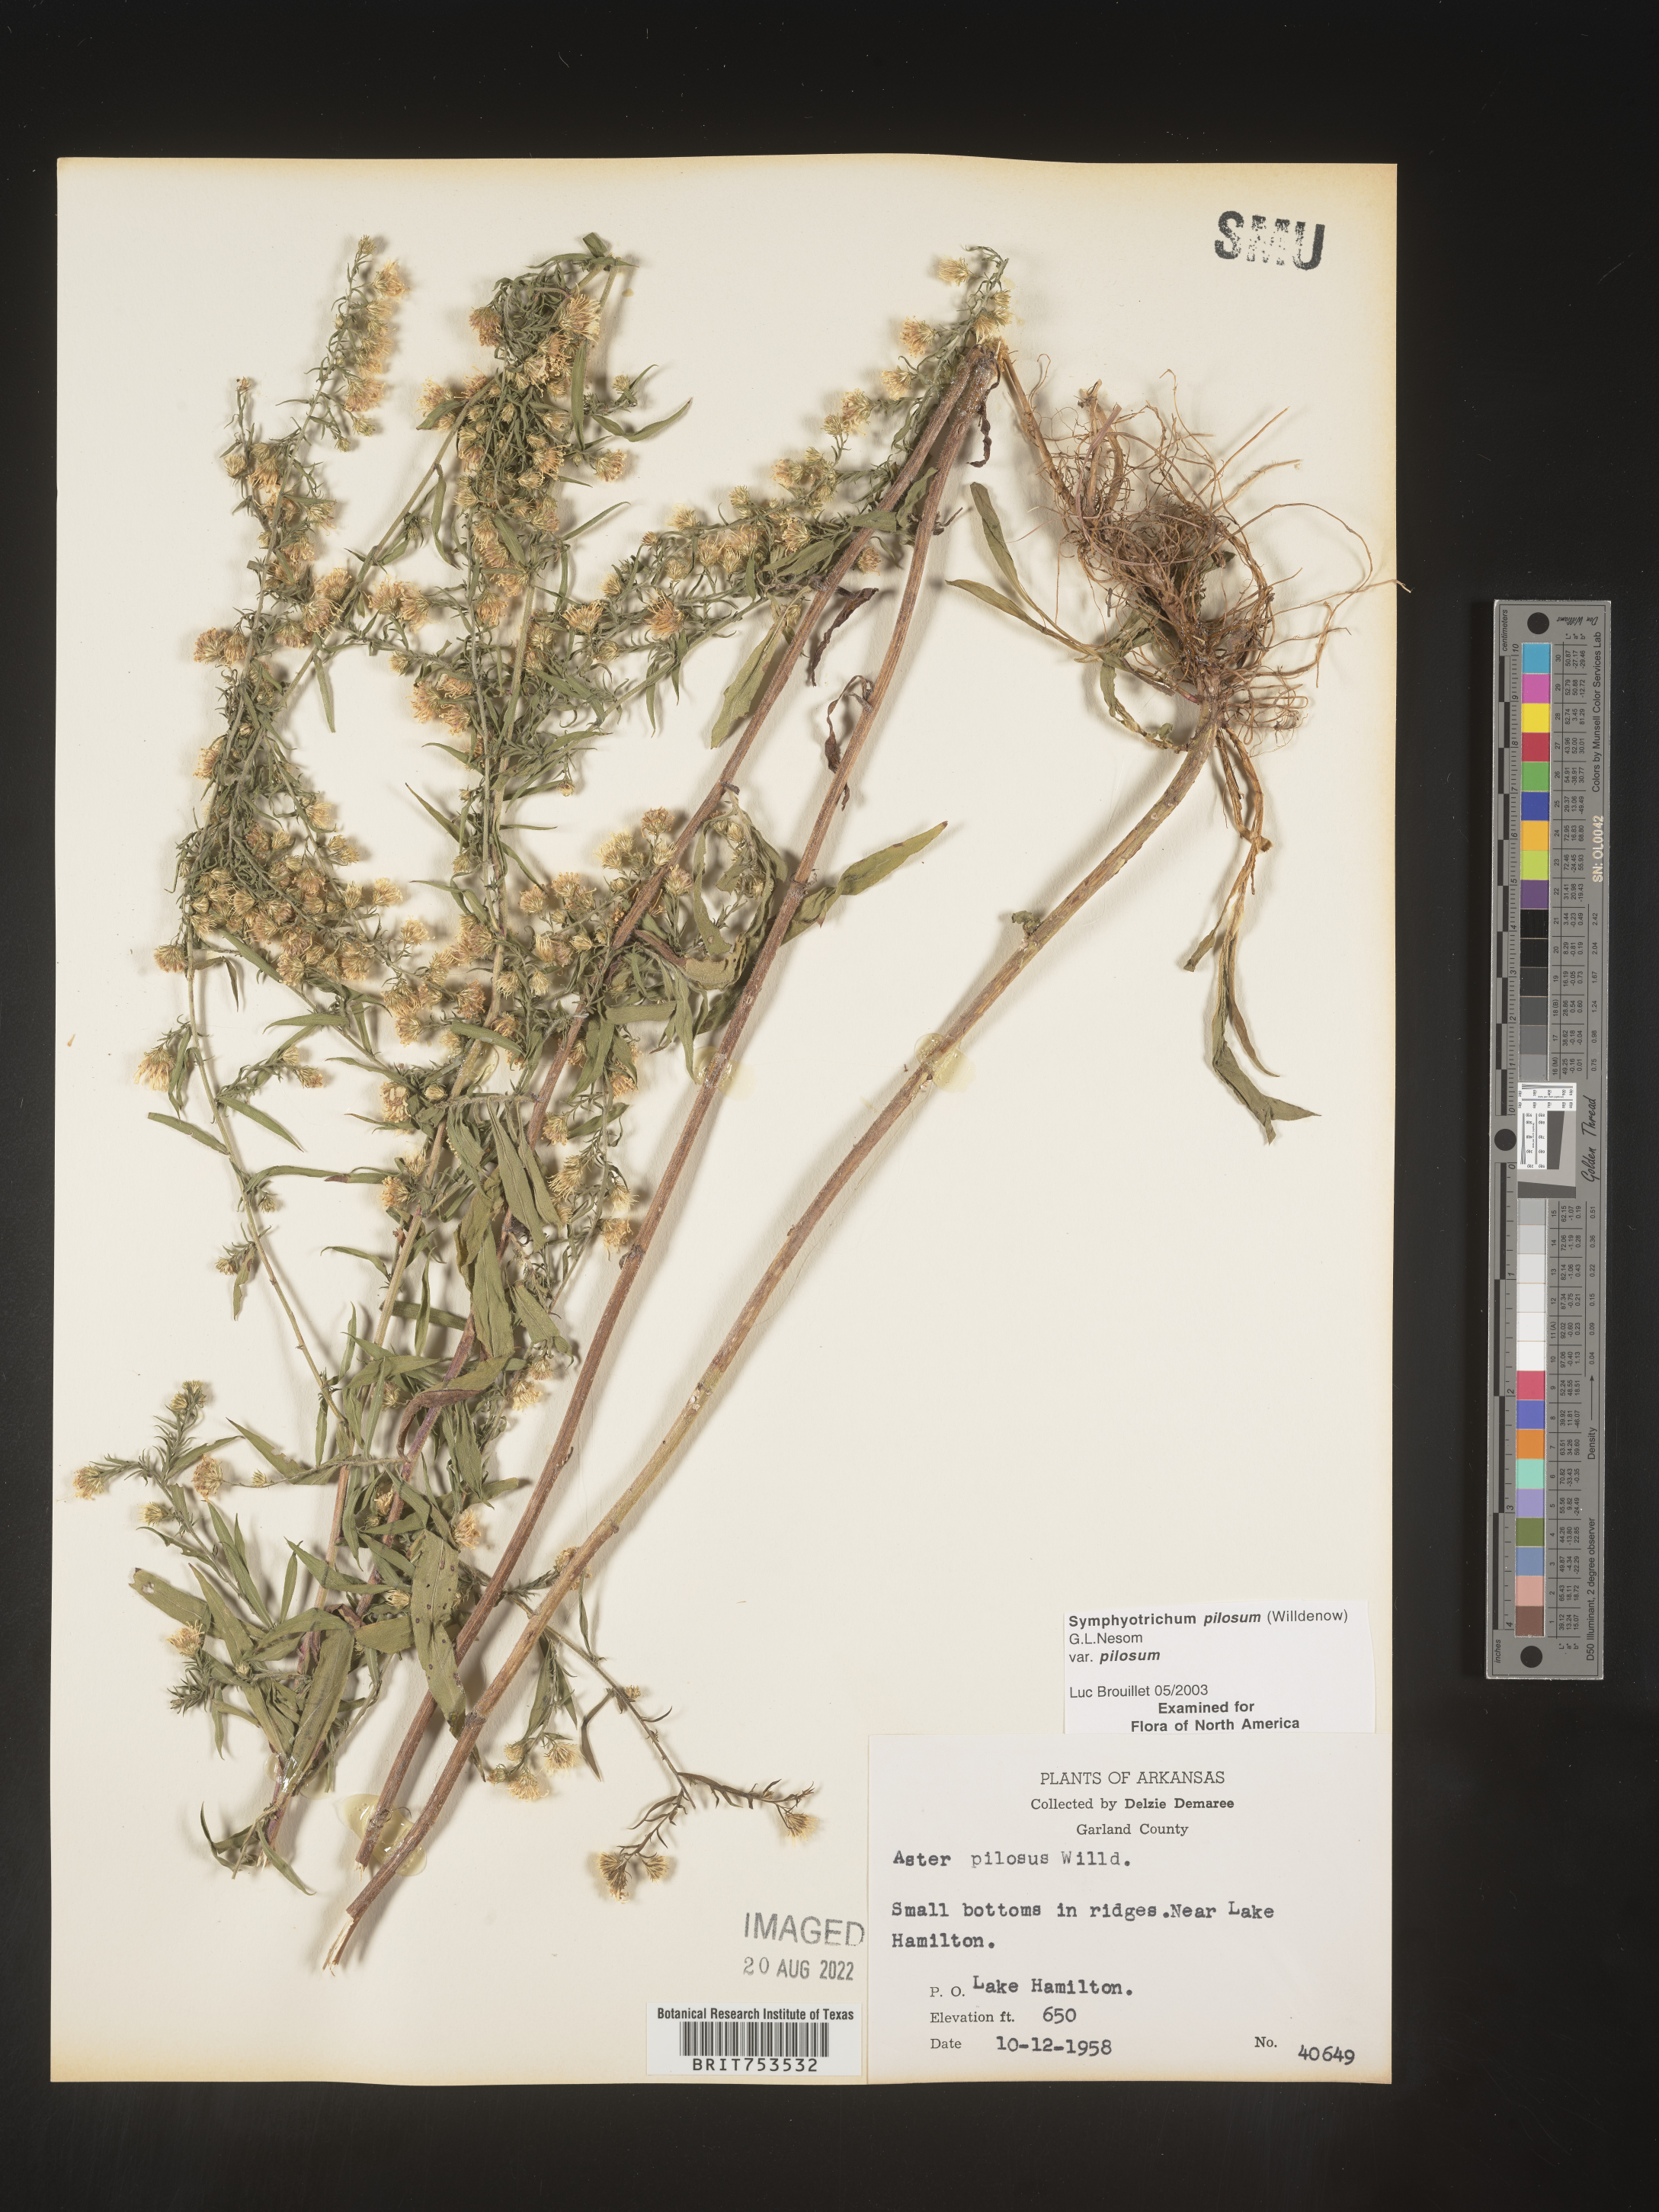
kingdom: Plantae
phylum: Tracheophyta
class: Magnoliopsida
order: Asterales
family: Asteraceae
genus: Symphyotrichum
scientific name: Symphyotrichum pilosum
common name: Awl aster
